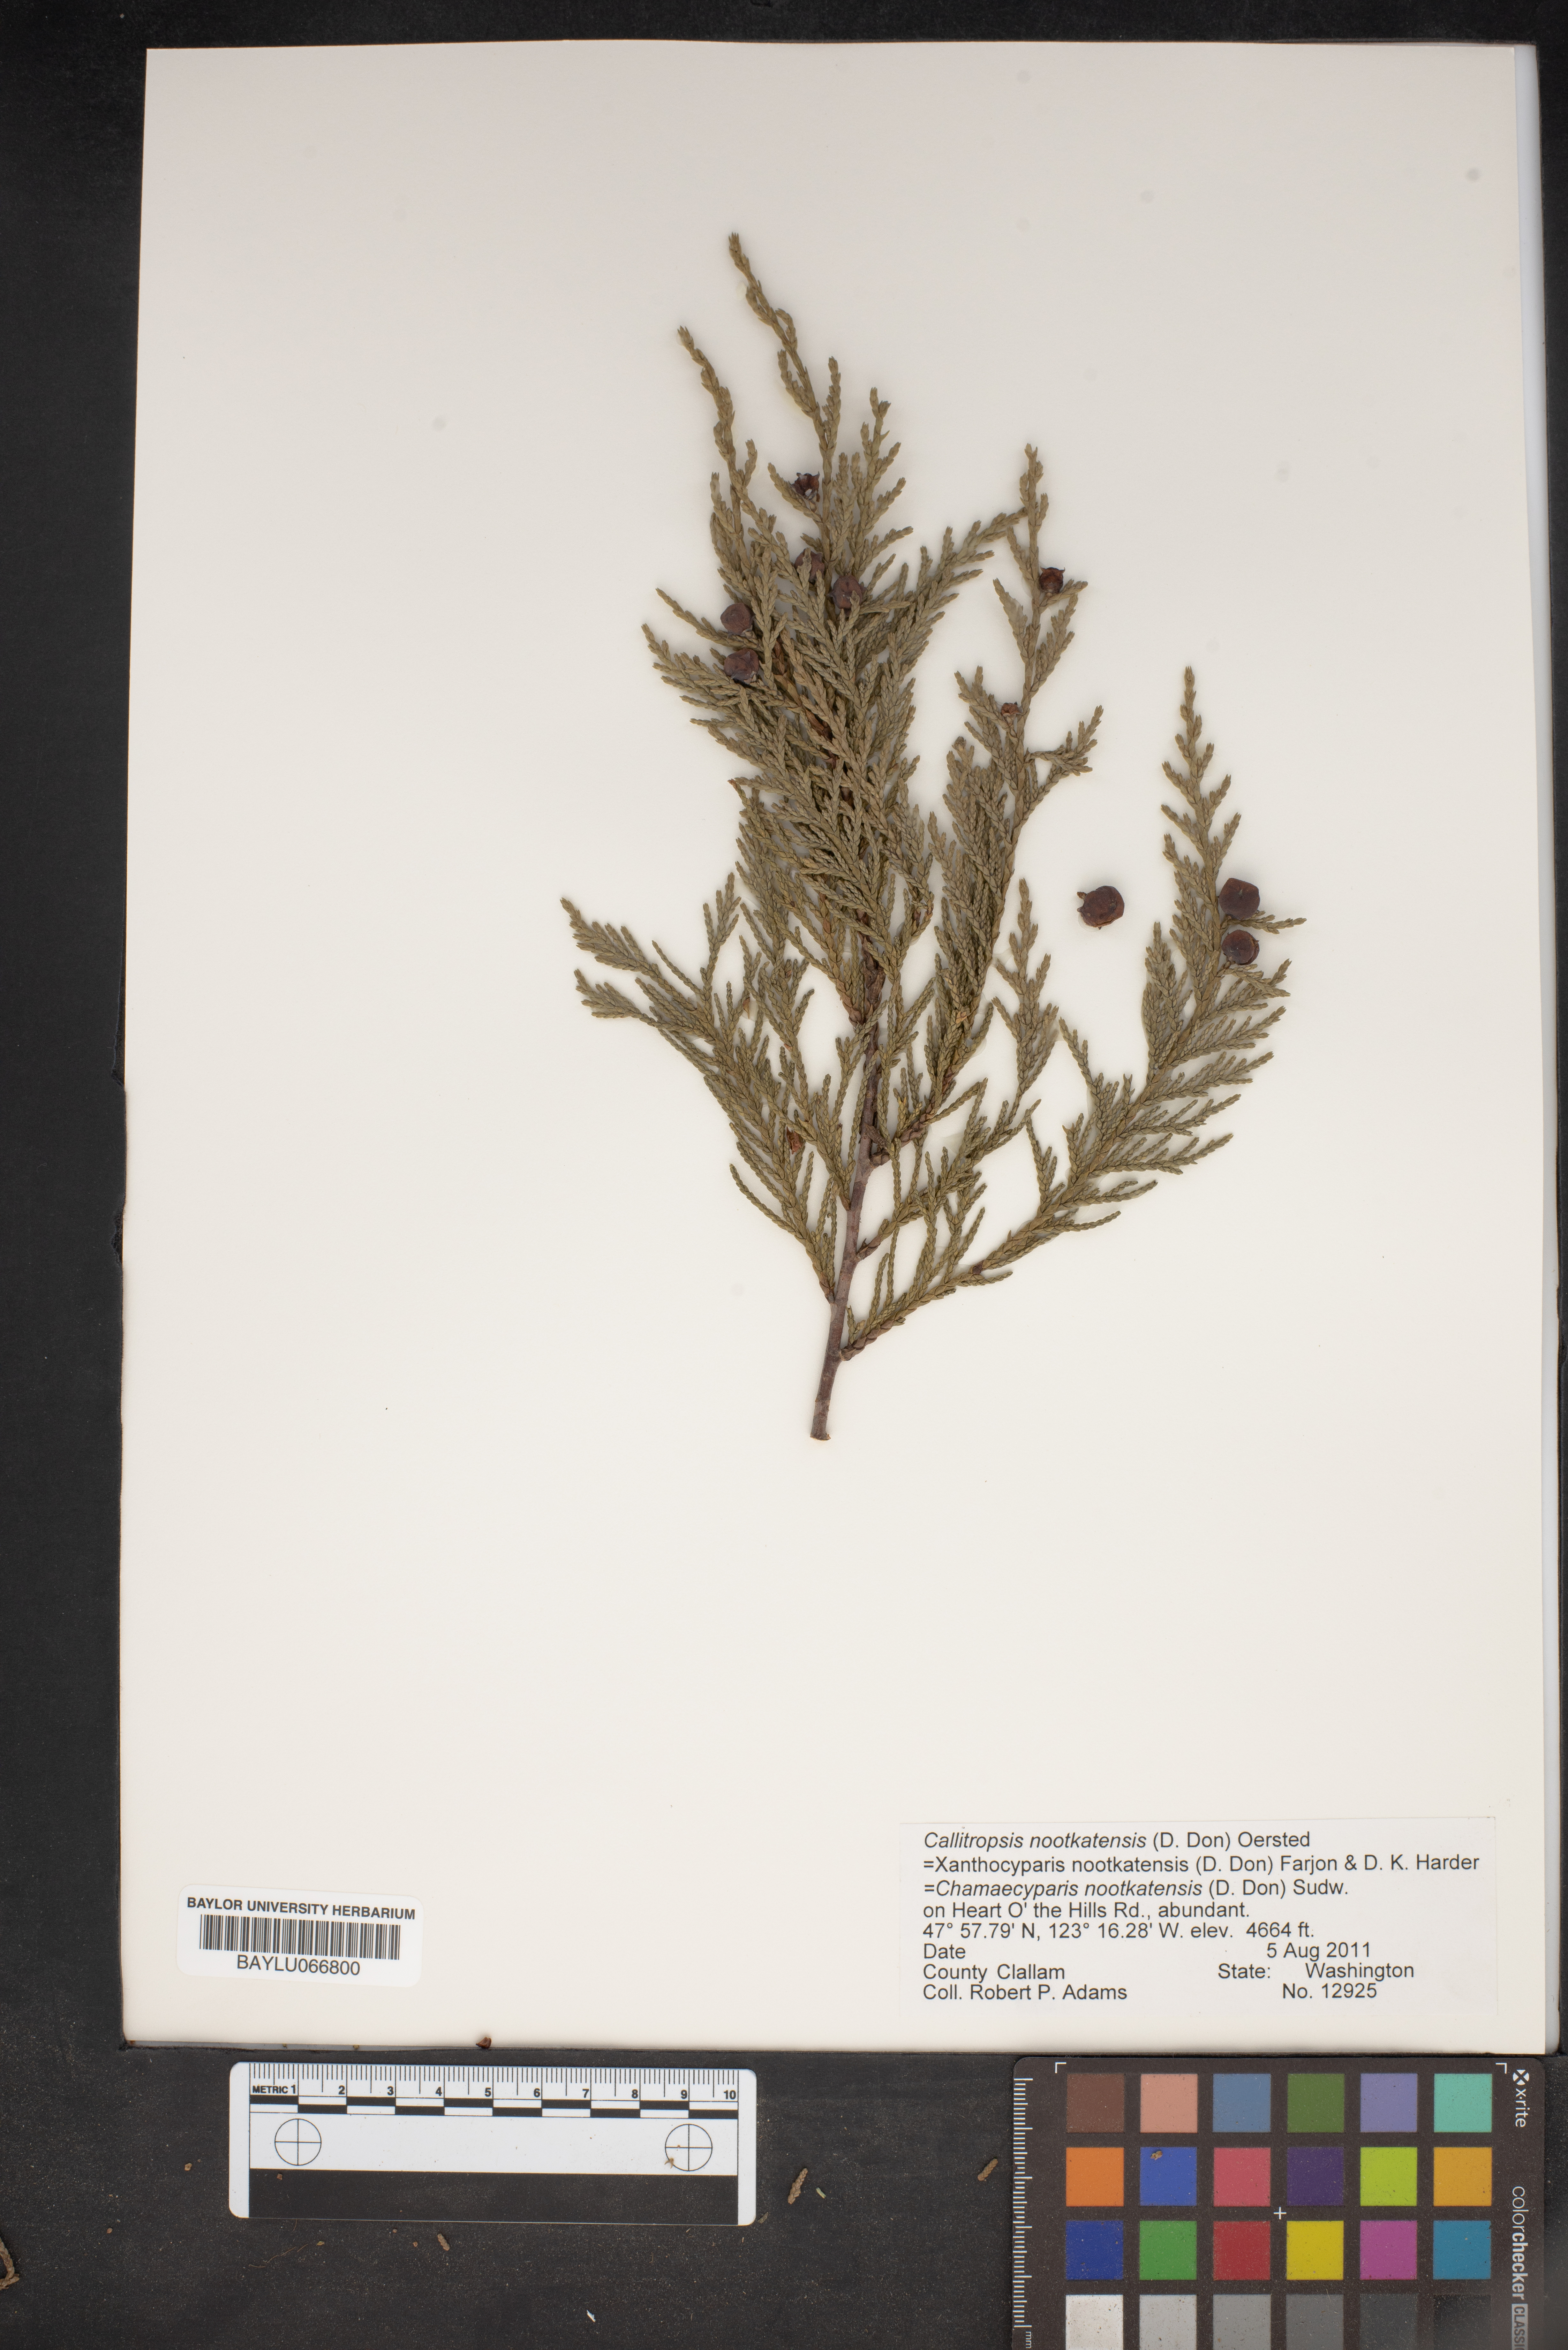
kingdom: Plantae
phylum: Tracheophyta
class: Pinopsida
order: Pinales
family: Cupressaceae
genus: Xanthocyparis
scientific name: Xanthocyparis nootkatensis
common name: Nootka cypress
